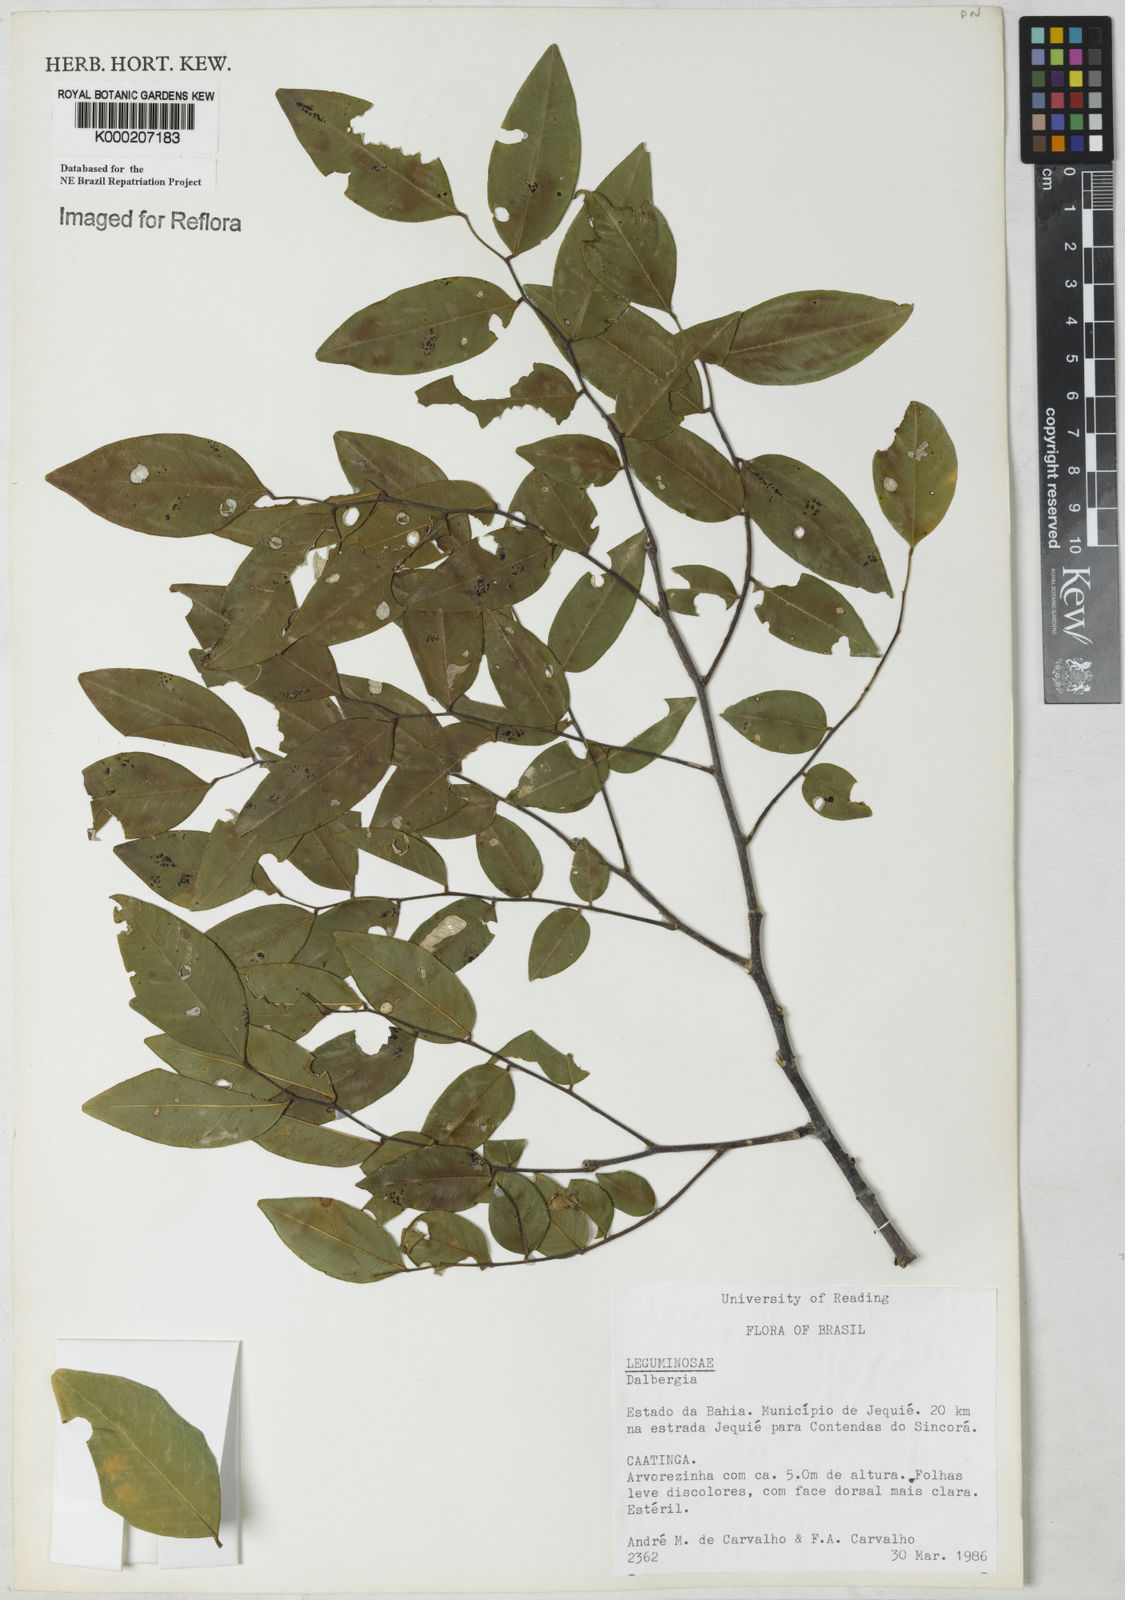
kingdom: Plantae
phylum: Tracheophyta
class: Magnoliopsida
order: Fabales
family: Fabaceae
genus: Dalbergia
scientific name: Dalbergia catingicola
